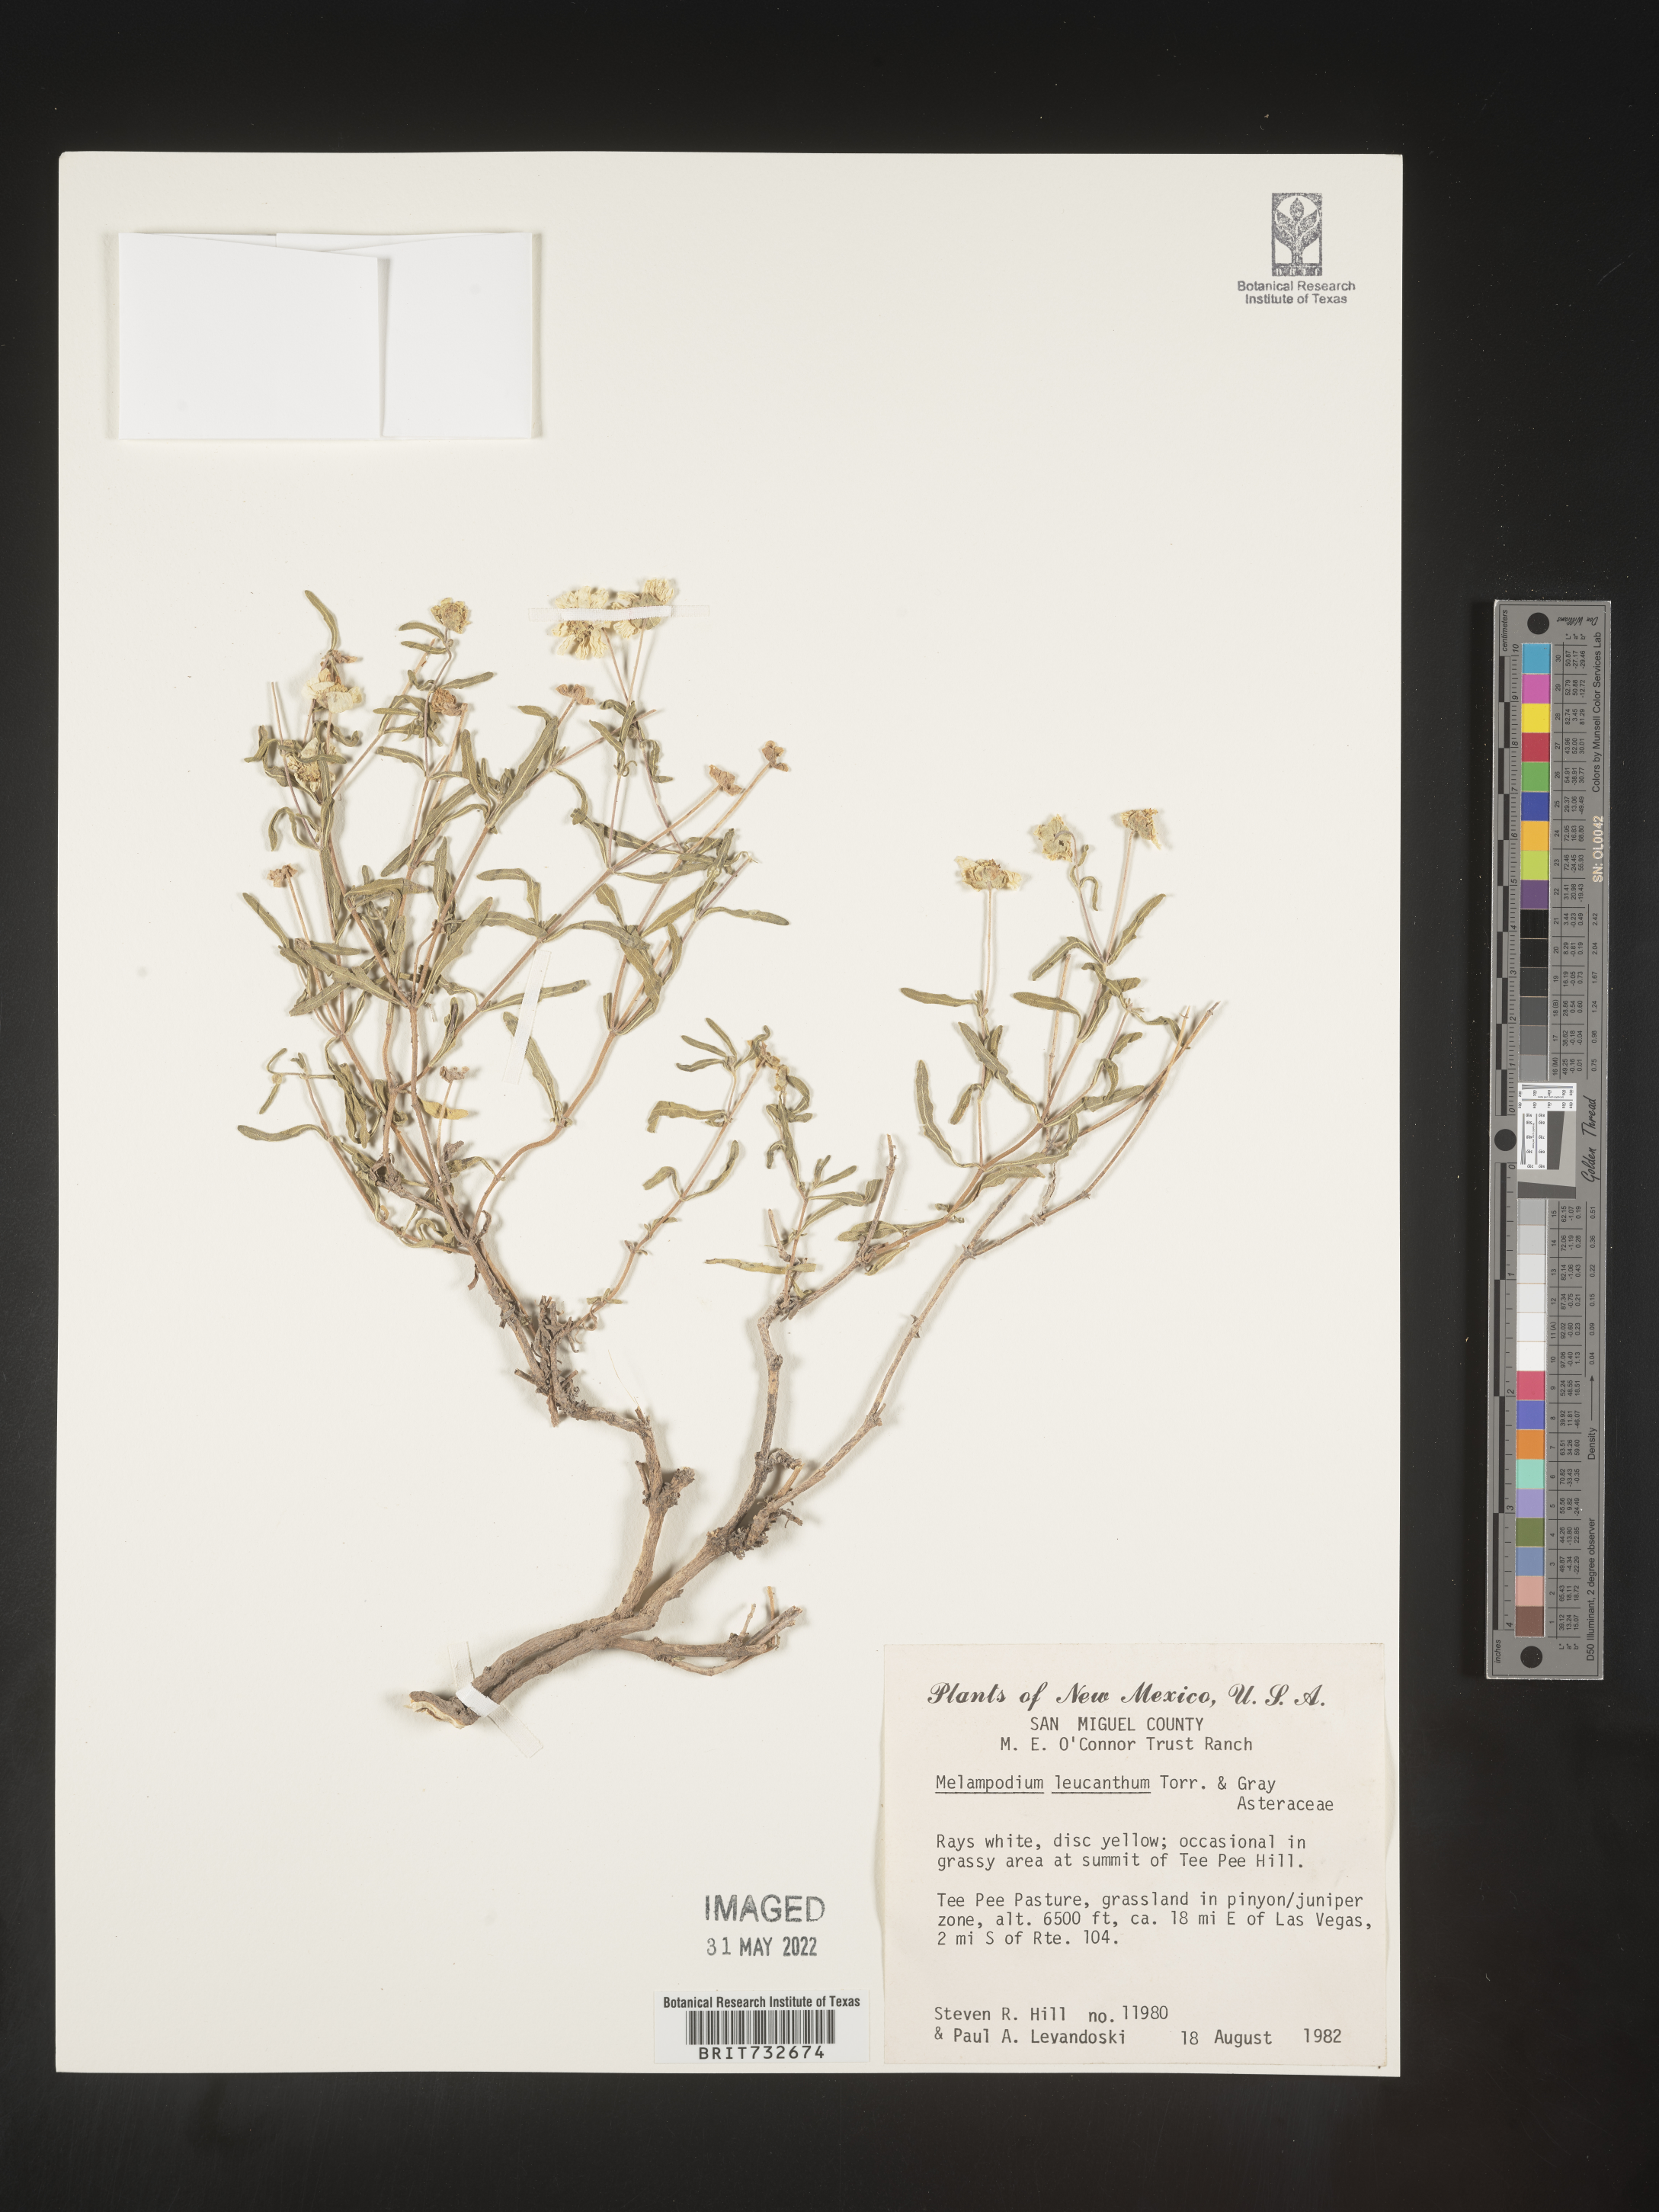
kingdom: Plantae
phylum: Tracheophyta
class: Magnoliopsida
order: Asterales
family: Asteraceae
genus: Melampodium
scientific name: Melampodium leucanthum
